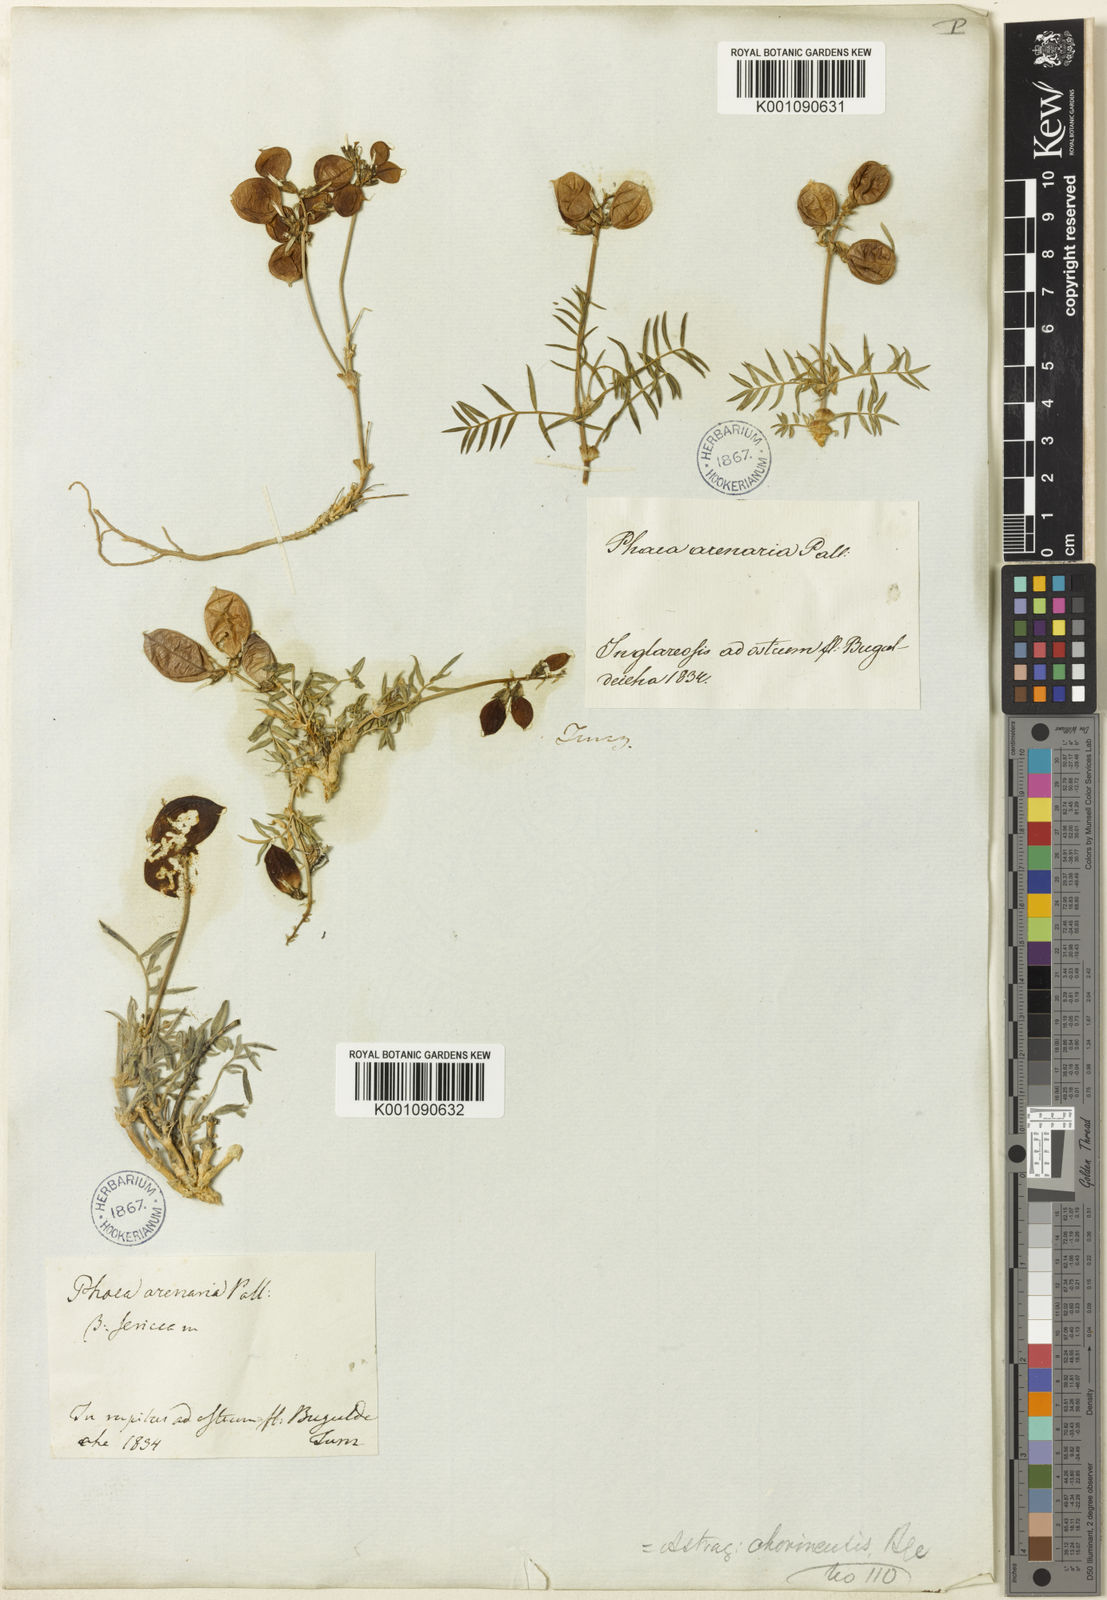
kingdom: Plantae
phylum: Tracheophyta
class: Magnoliopsida
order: Fabales
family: Fabaceae
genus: Astragalus
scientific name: Astragalus
